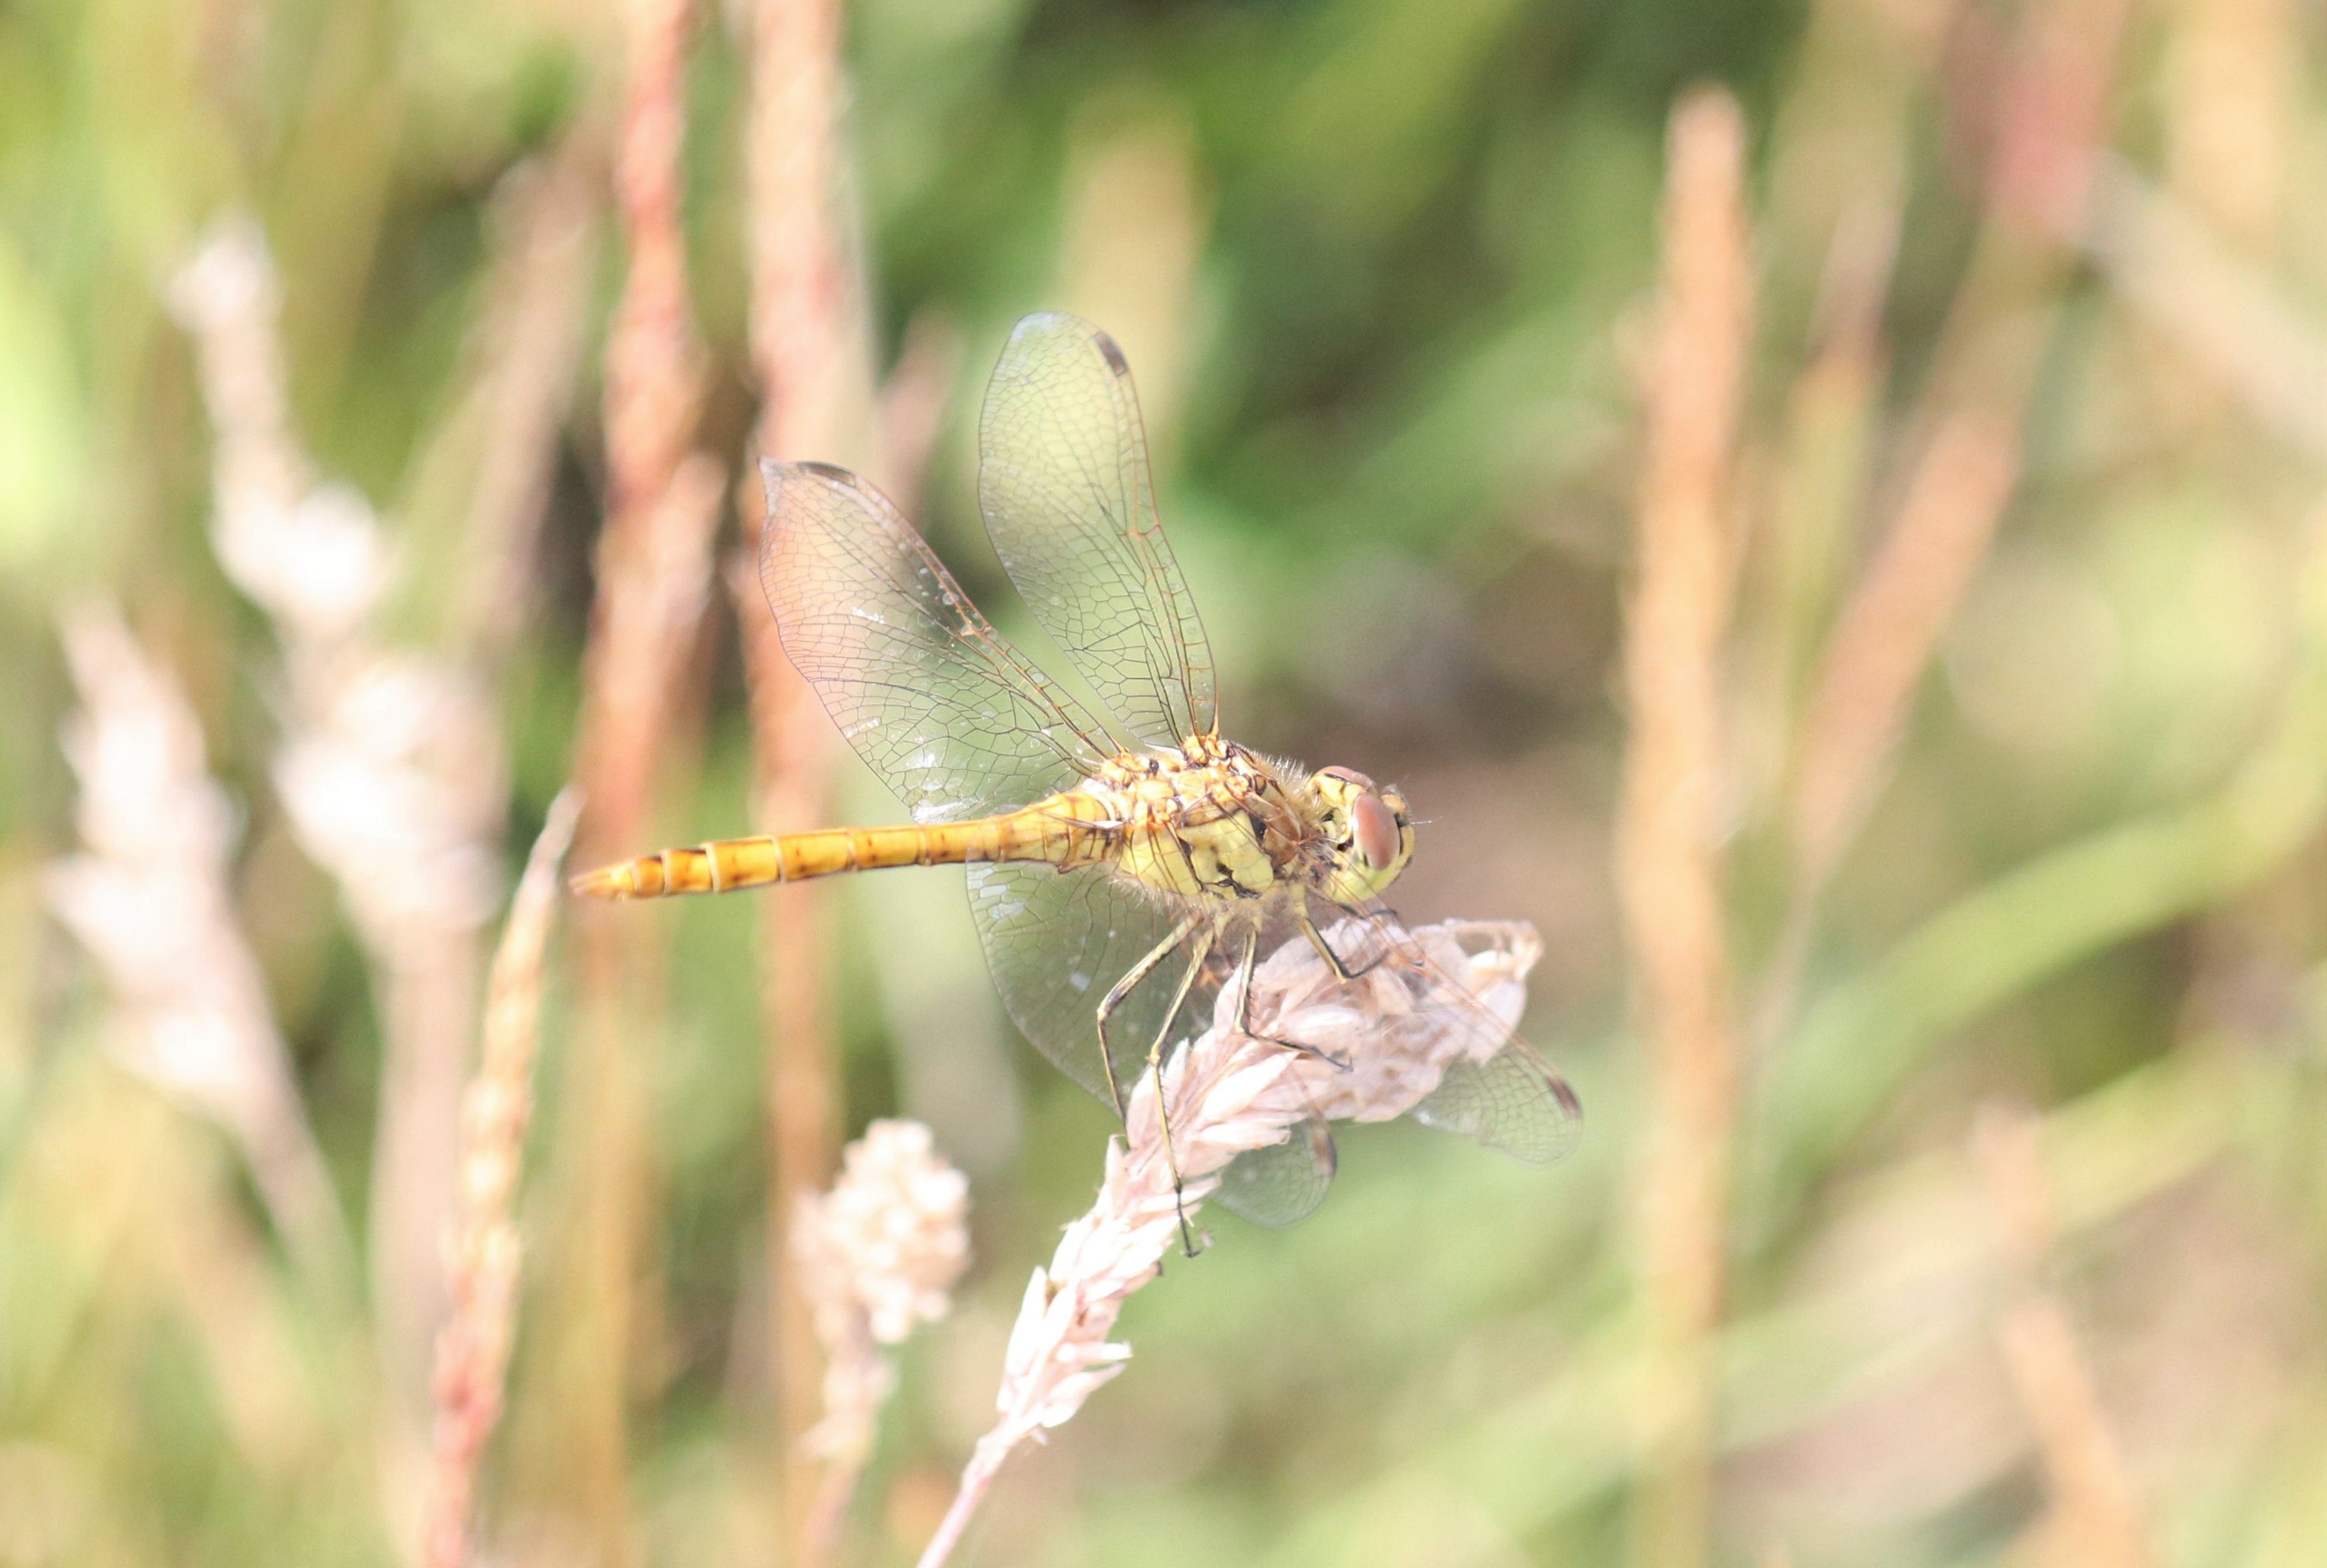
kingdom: Animalia
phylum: Arthropoda
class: Insecta
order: Odonata
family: Libellulidae
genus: Sympetrum
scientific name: Sympetrum vulgatum
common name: Almindelig hedelibel
